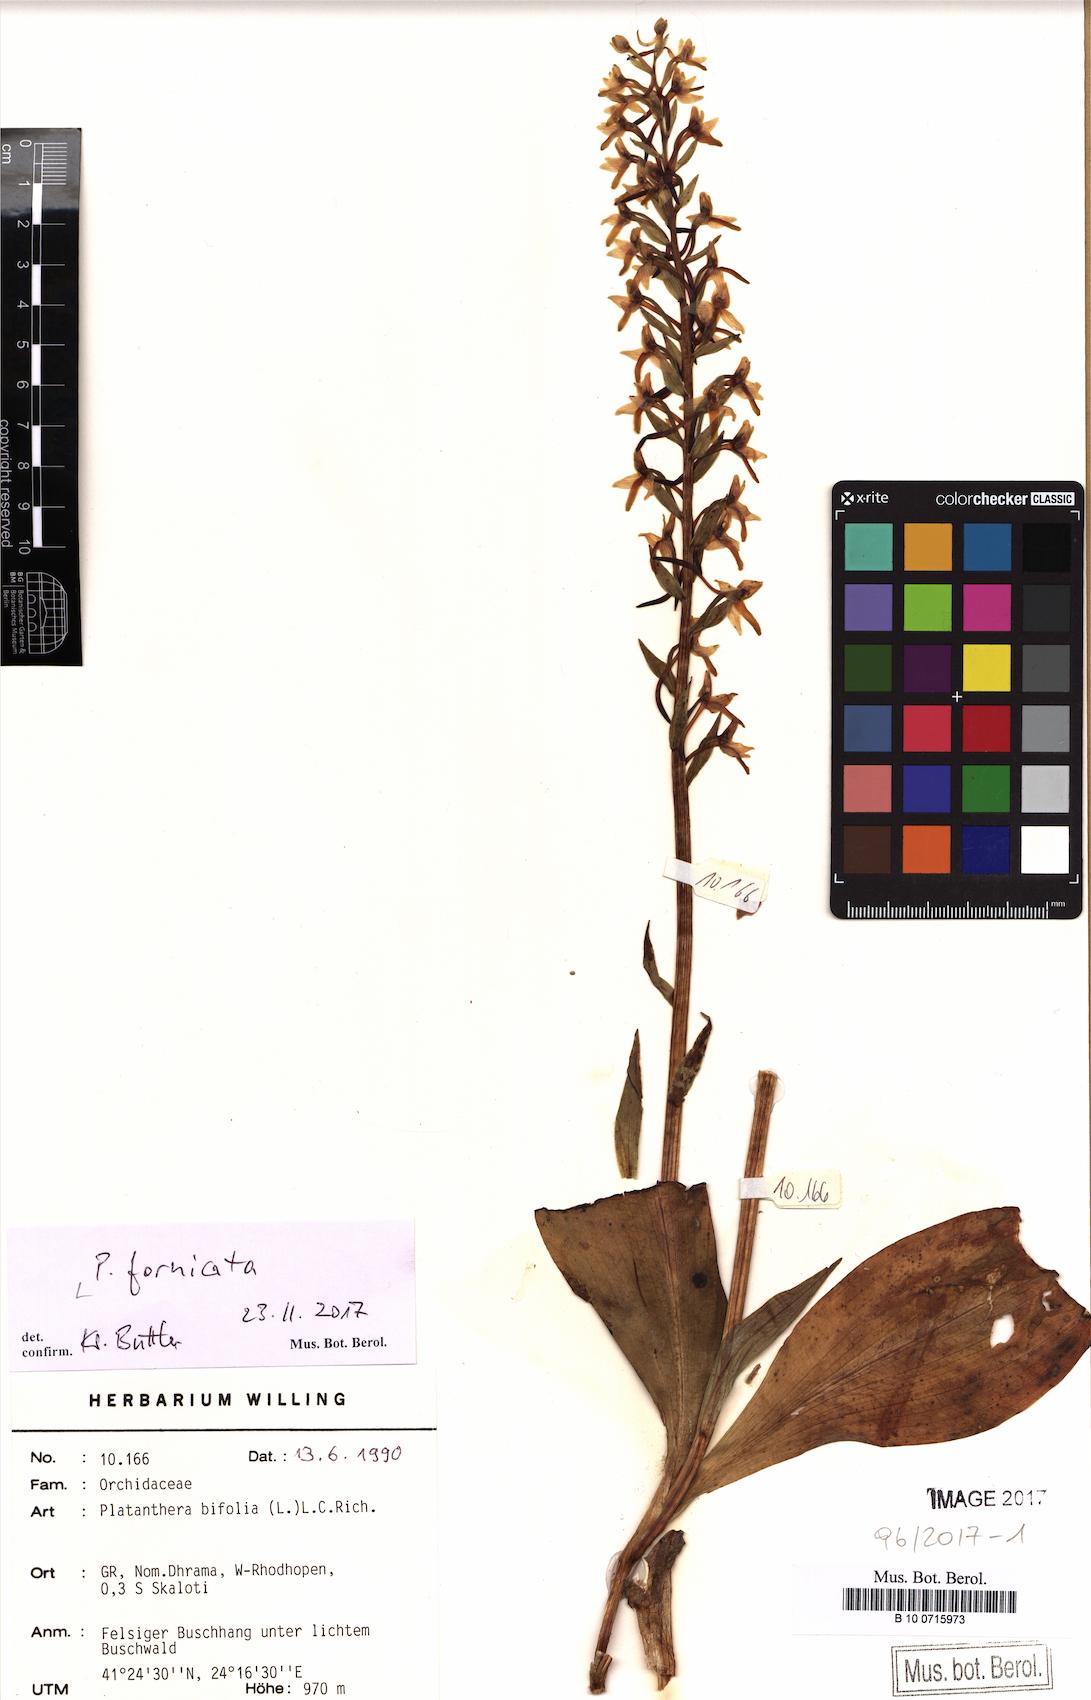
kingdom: Plantae
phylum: Tracheophyta
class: Liliopsida
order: Asparagales
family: Orchidaceae
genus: Platanthera
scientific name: Platanthera bifolia
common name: Lesser butterfly-orchid
